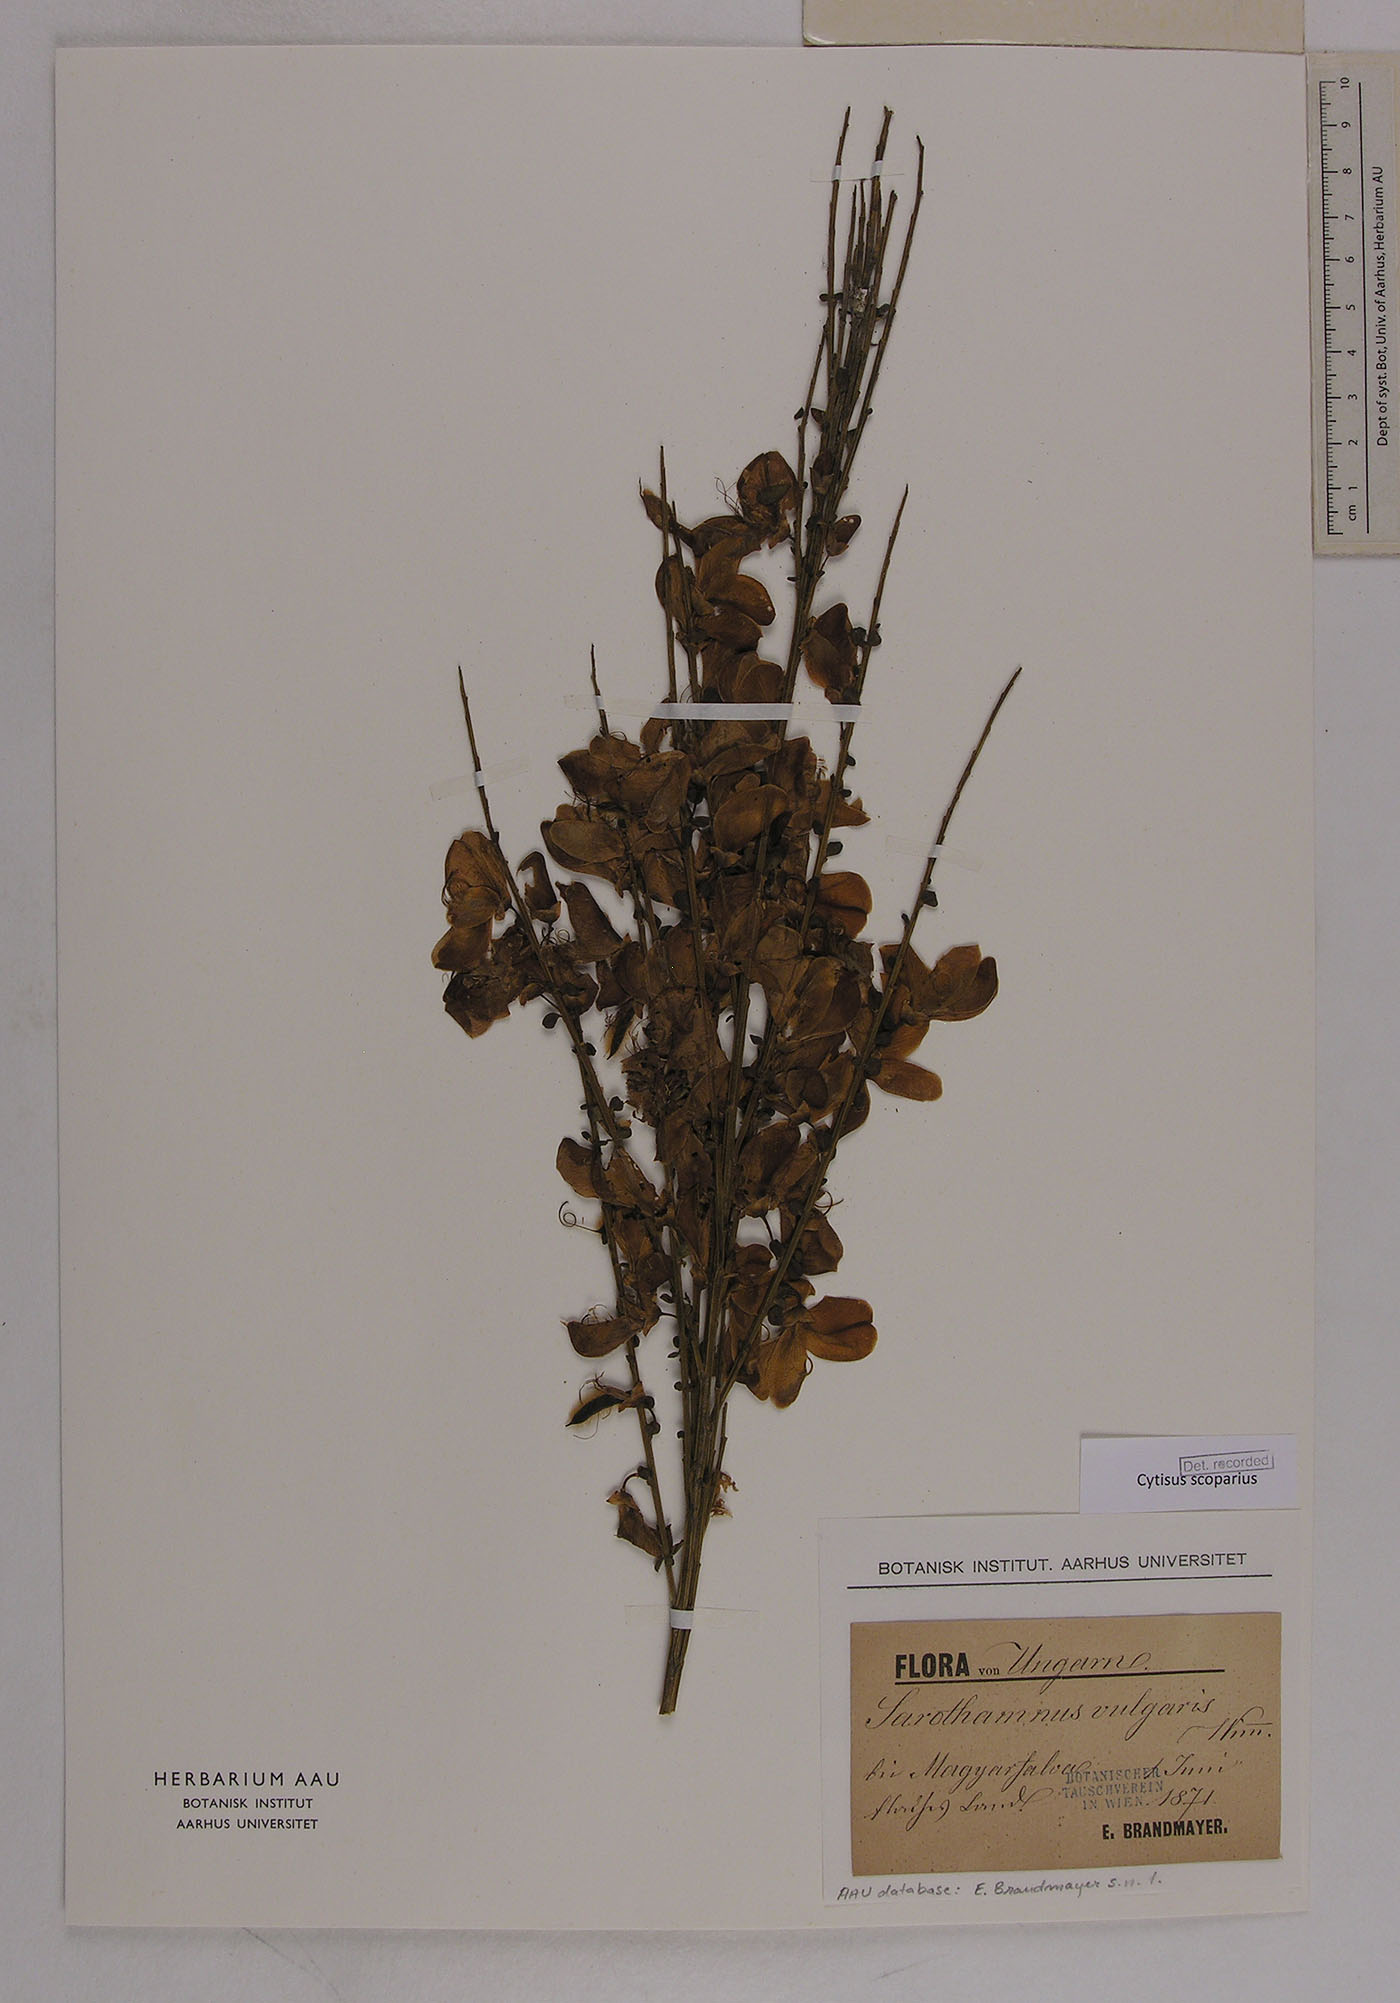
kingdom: Plantae
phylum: Tracheophyta
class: Magnoliopsida
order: Fabales
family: Fabaceae
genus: Cytisus
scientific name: Cytisus scoparius
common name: Scotch broom
